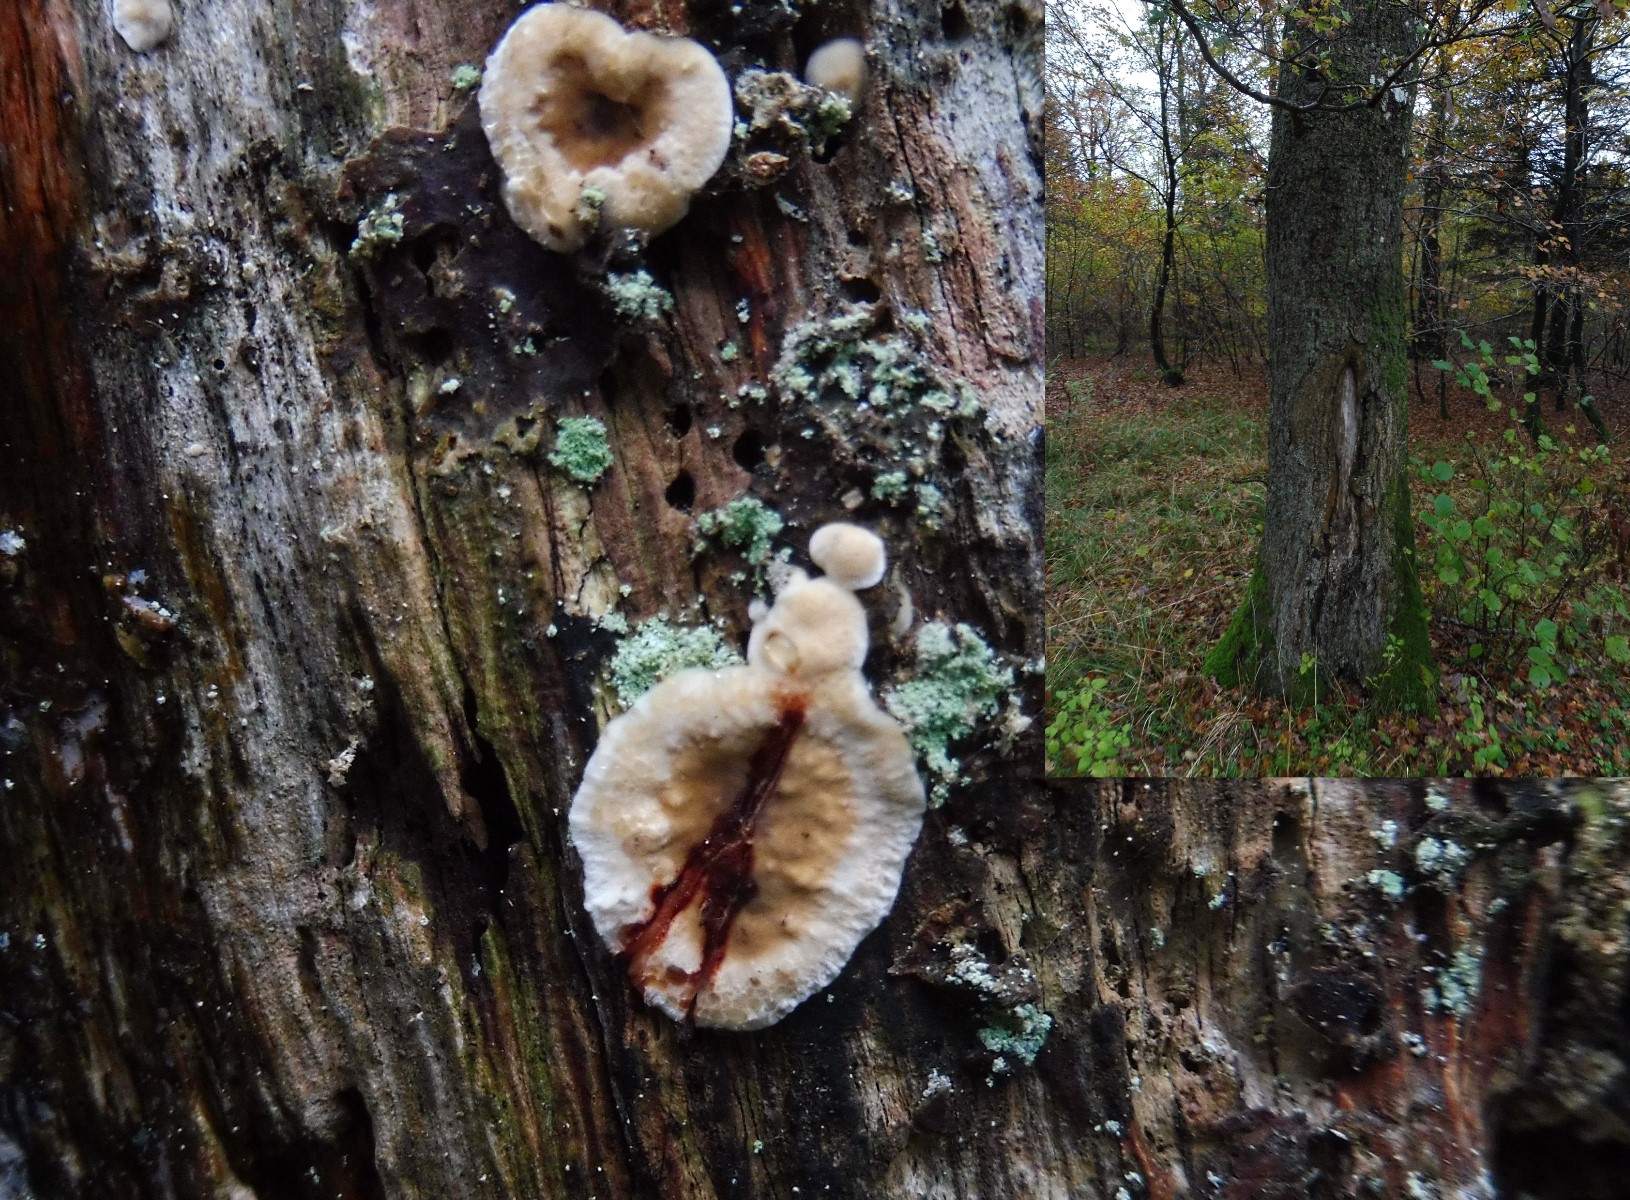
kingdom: Fungi
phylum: Basidiomycota
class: Agaricomycetes
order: Russulales
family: Stereaceae
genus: Stereum
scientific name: Stereum gausapatum
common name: tynd lædersvamp
